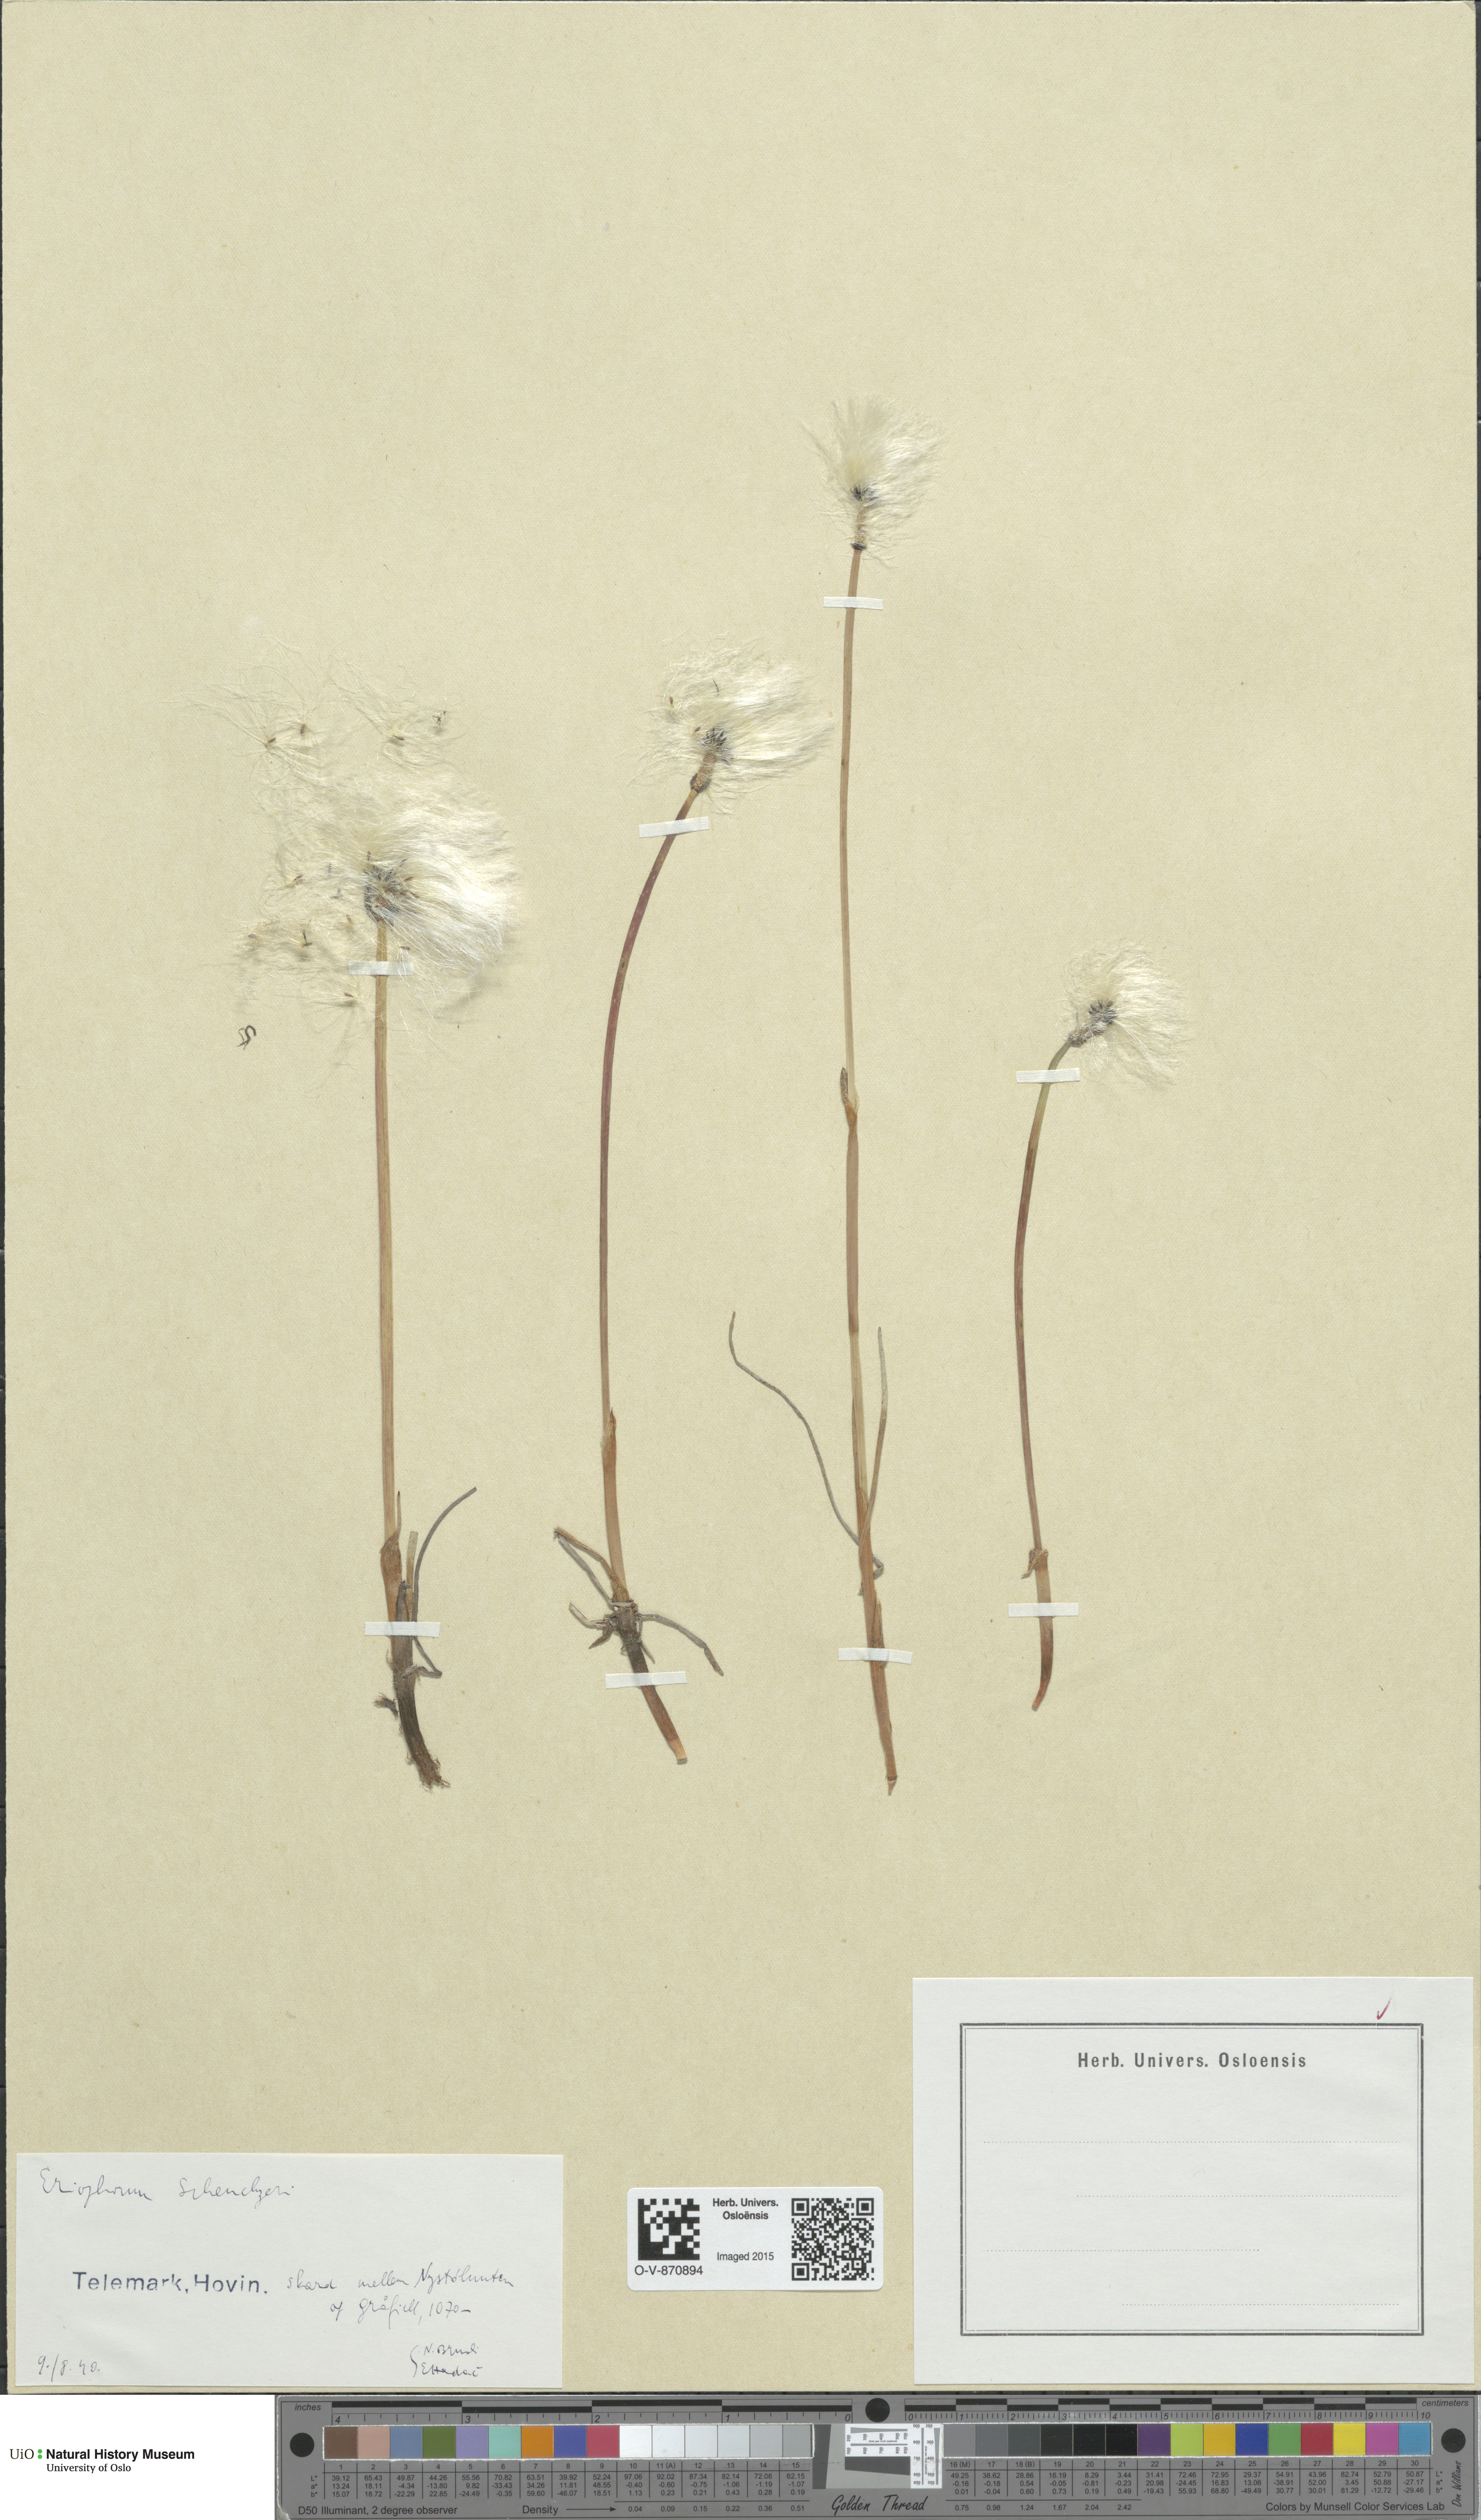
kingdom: Plantae
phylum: Tracheophyta
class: Liliopsida
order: Poales
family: Cyperaceae
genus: Eriophorum
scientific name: Eriophorum scheuchzeri
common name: Scheuchzer's cottongrass
